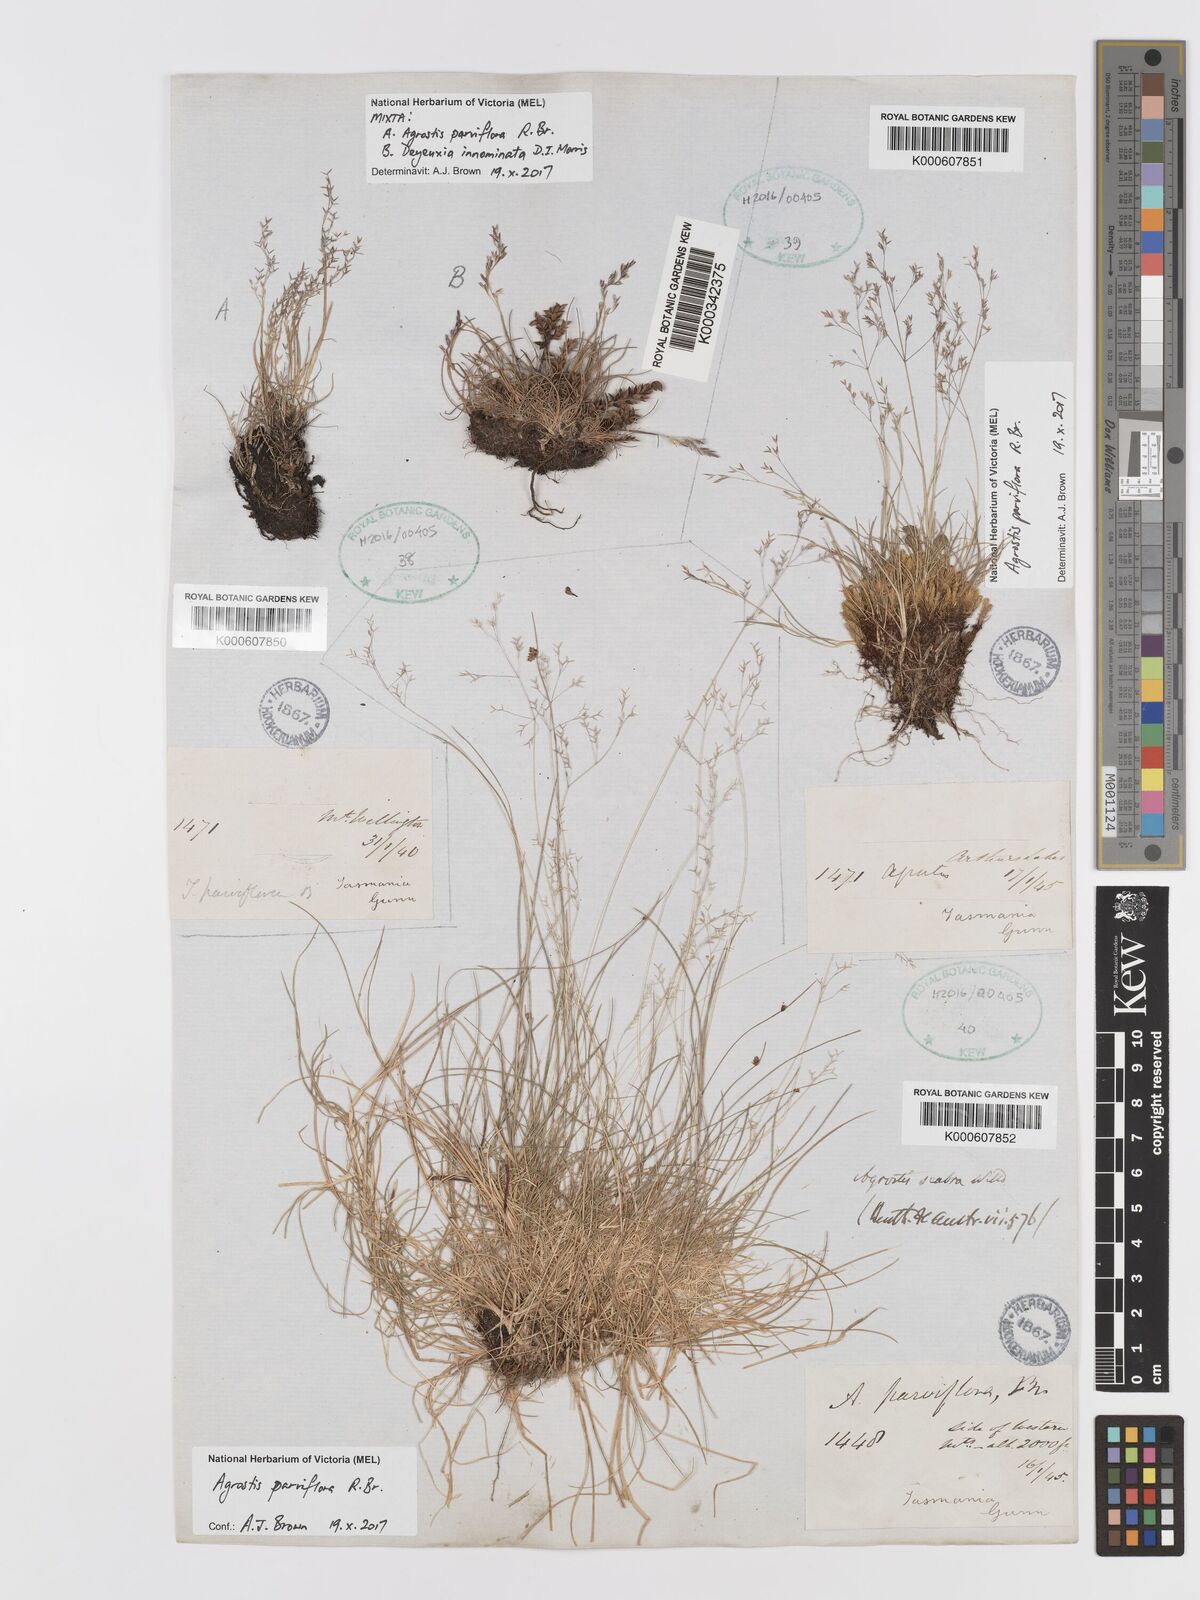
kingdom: Plantae
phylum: Tracheophyta
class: Liliopsida
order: Poales
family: Poaceae
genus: Agrostis
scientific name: Agrostis parviflora
